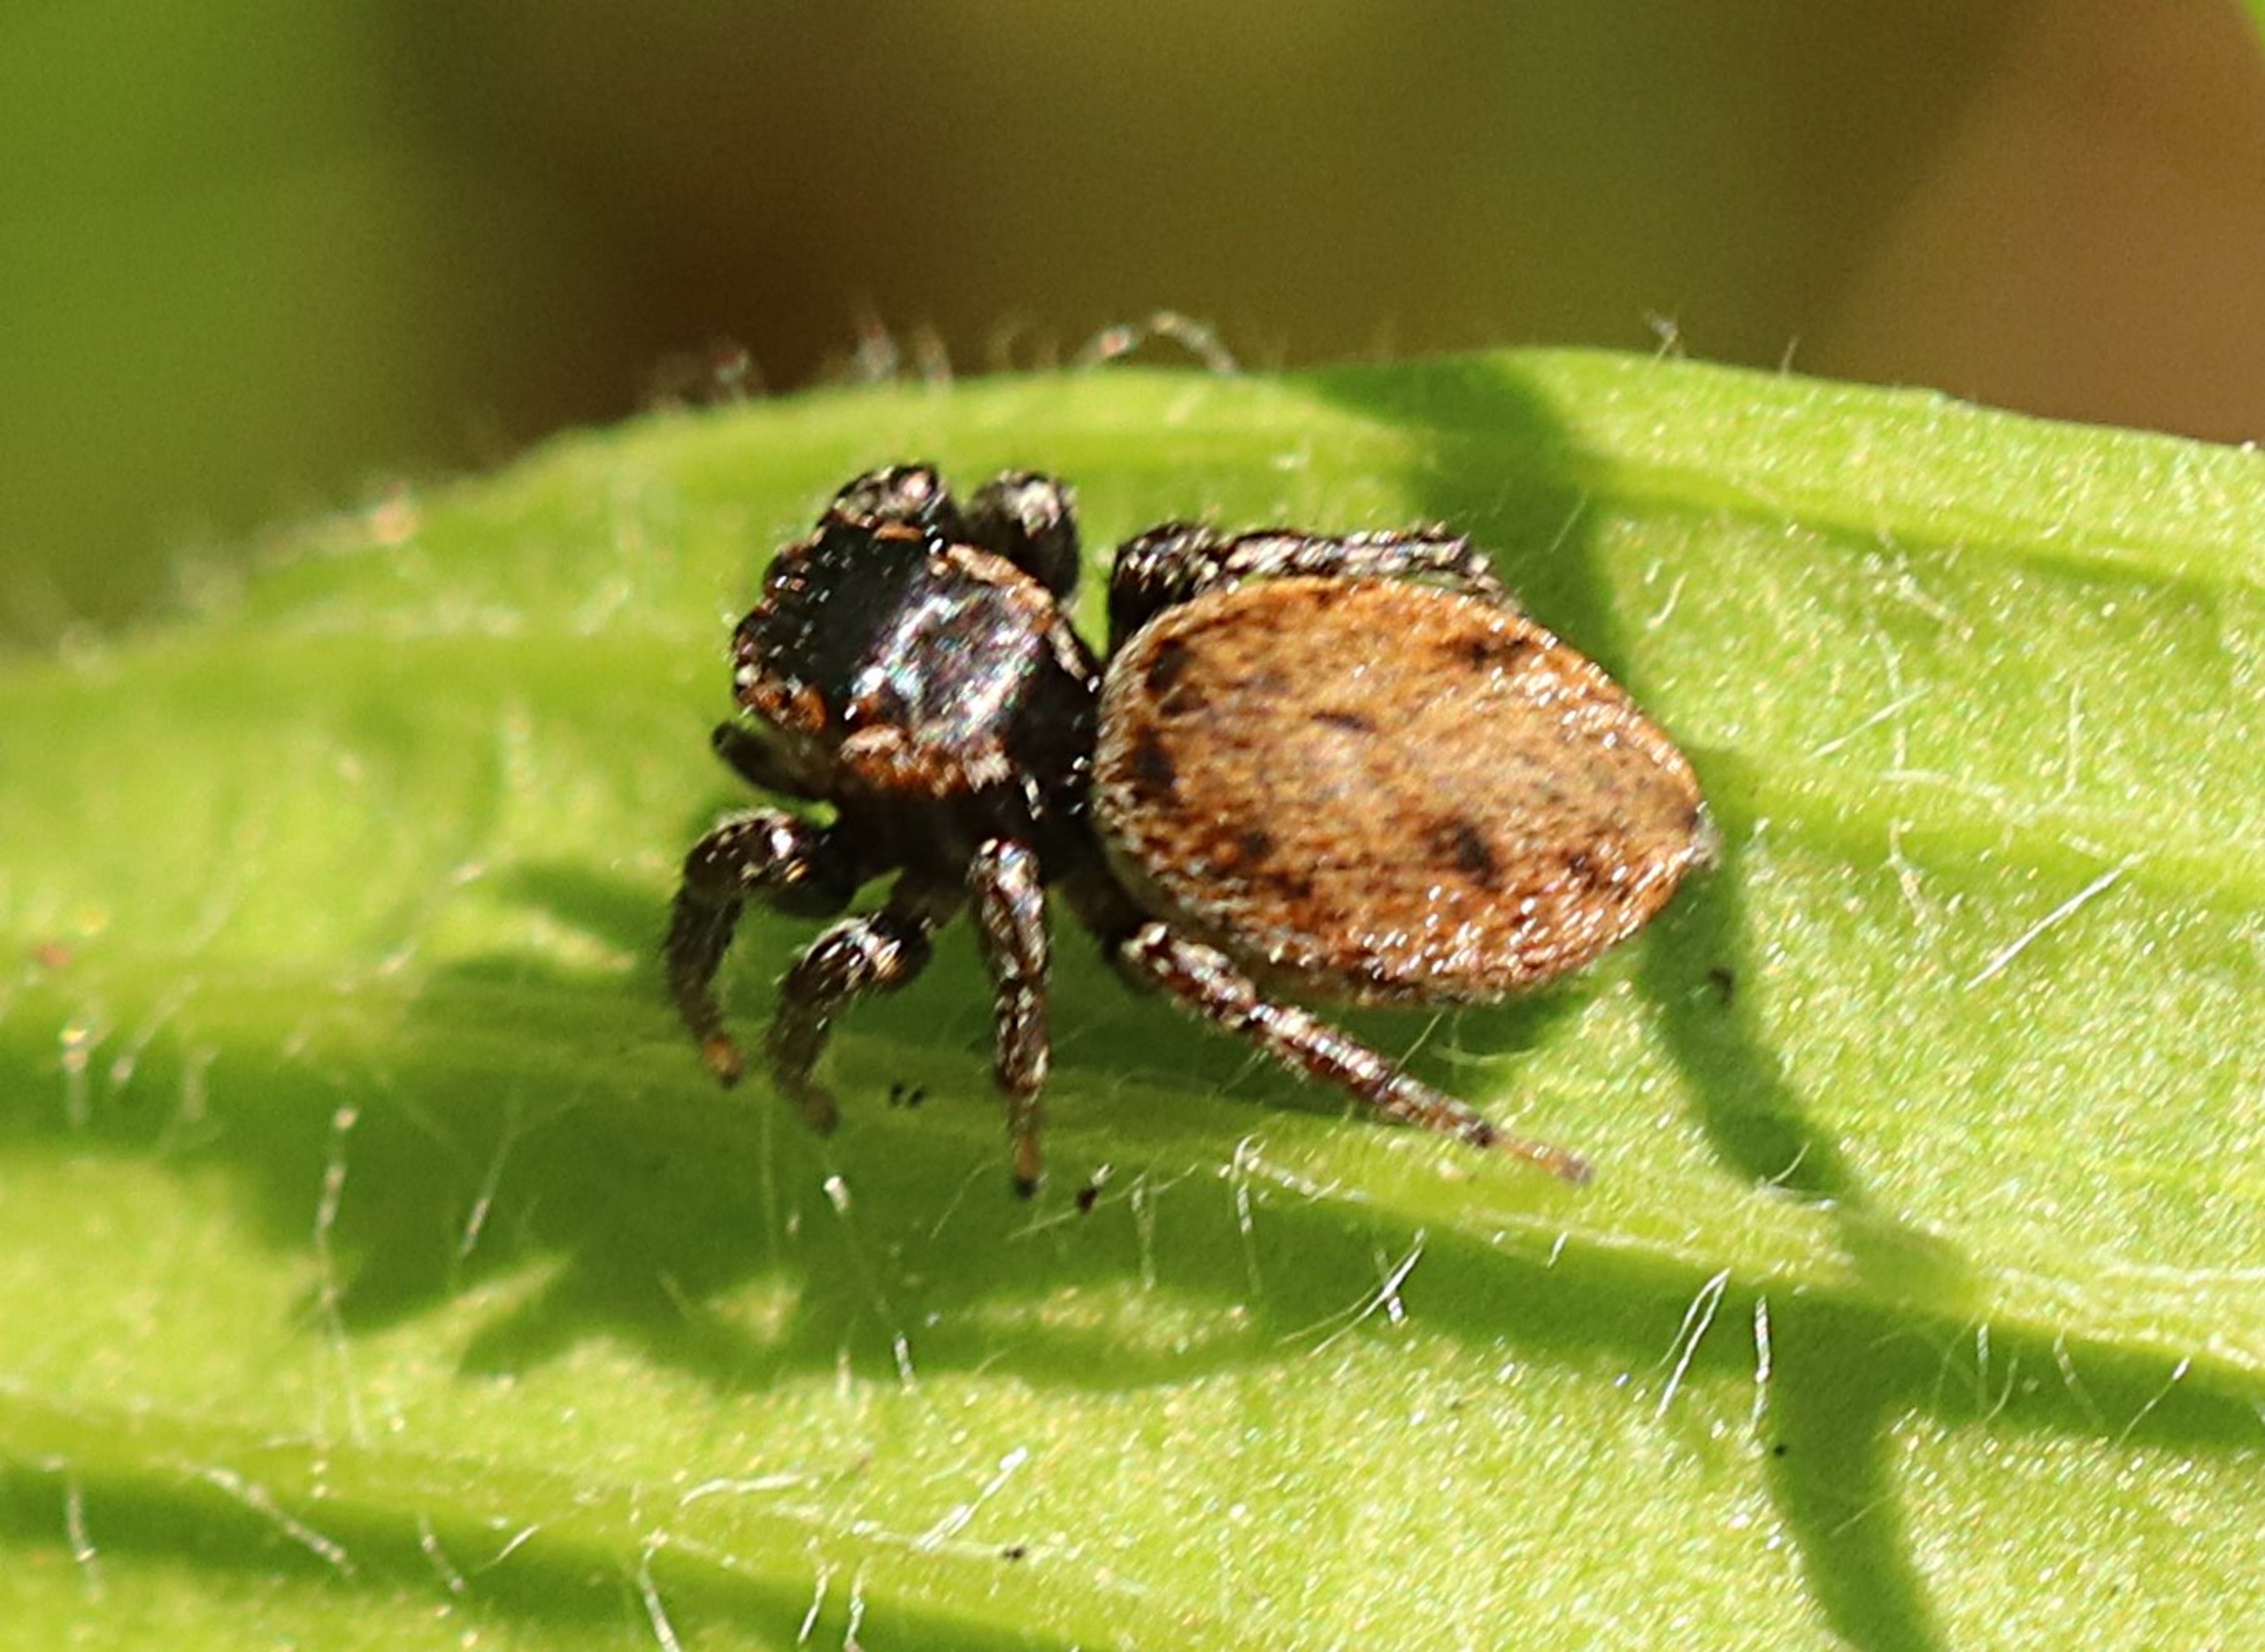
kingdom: Animalia
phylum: Arthropoda
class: Arachnida
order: Araneae
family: Salticidae
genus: Evarcha
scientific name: Evarcha falcata
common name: Broget springedderkop
